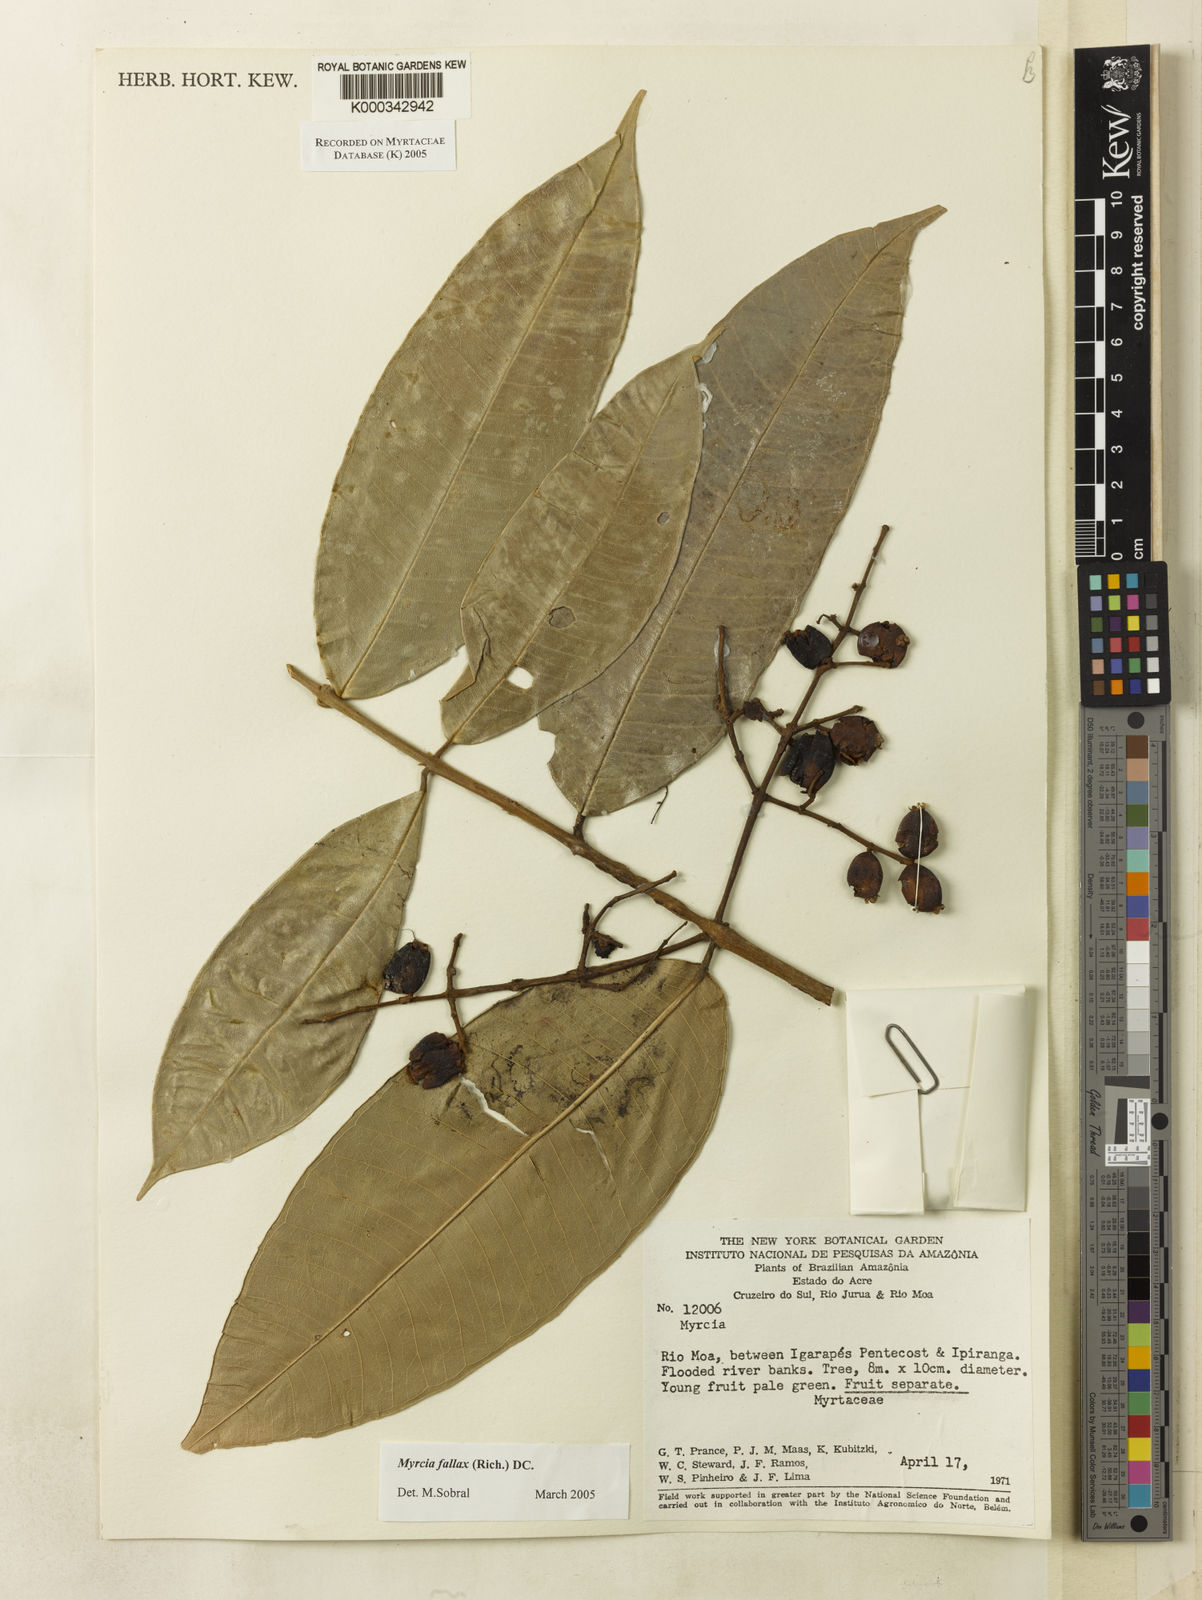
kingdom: Plantae
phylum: Tracheophyta
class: Magnoliopsida
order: Myrtales
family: Myrtaceae
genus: Myrcia
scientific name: Myrcia splendens
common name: Surinam cherry
